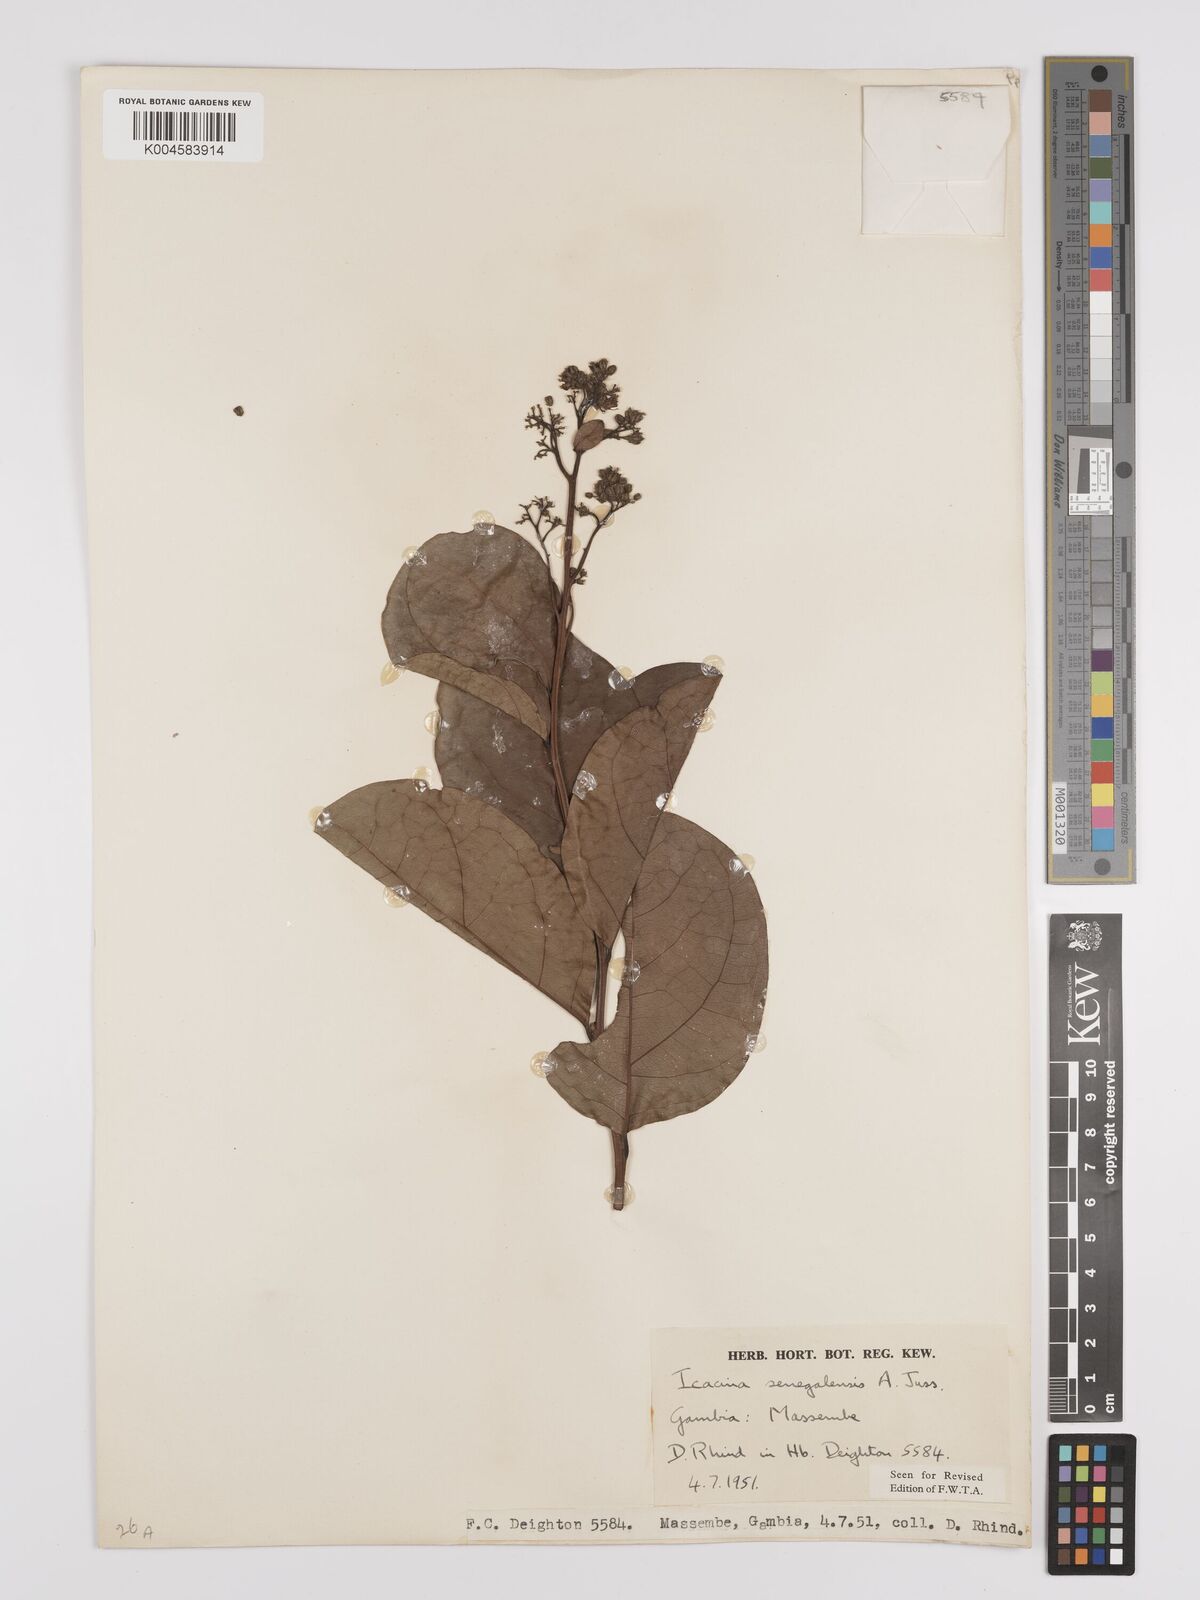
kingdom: Plantae
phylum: Tracheophyta
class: Magnoliopsida
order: Icacinales
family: Icacinaceae
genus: Icacina
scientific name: Icacina oliviformis
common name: False yam
